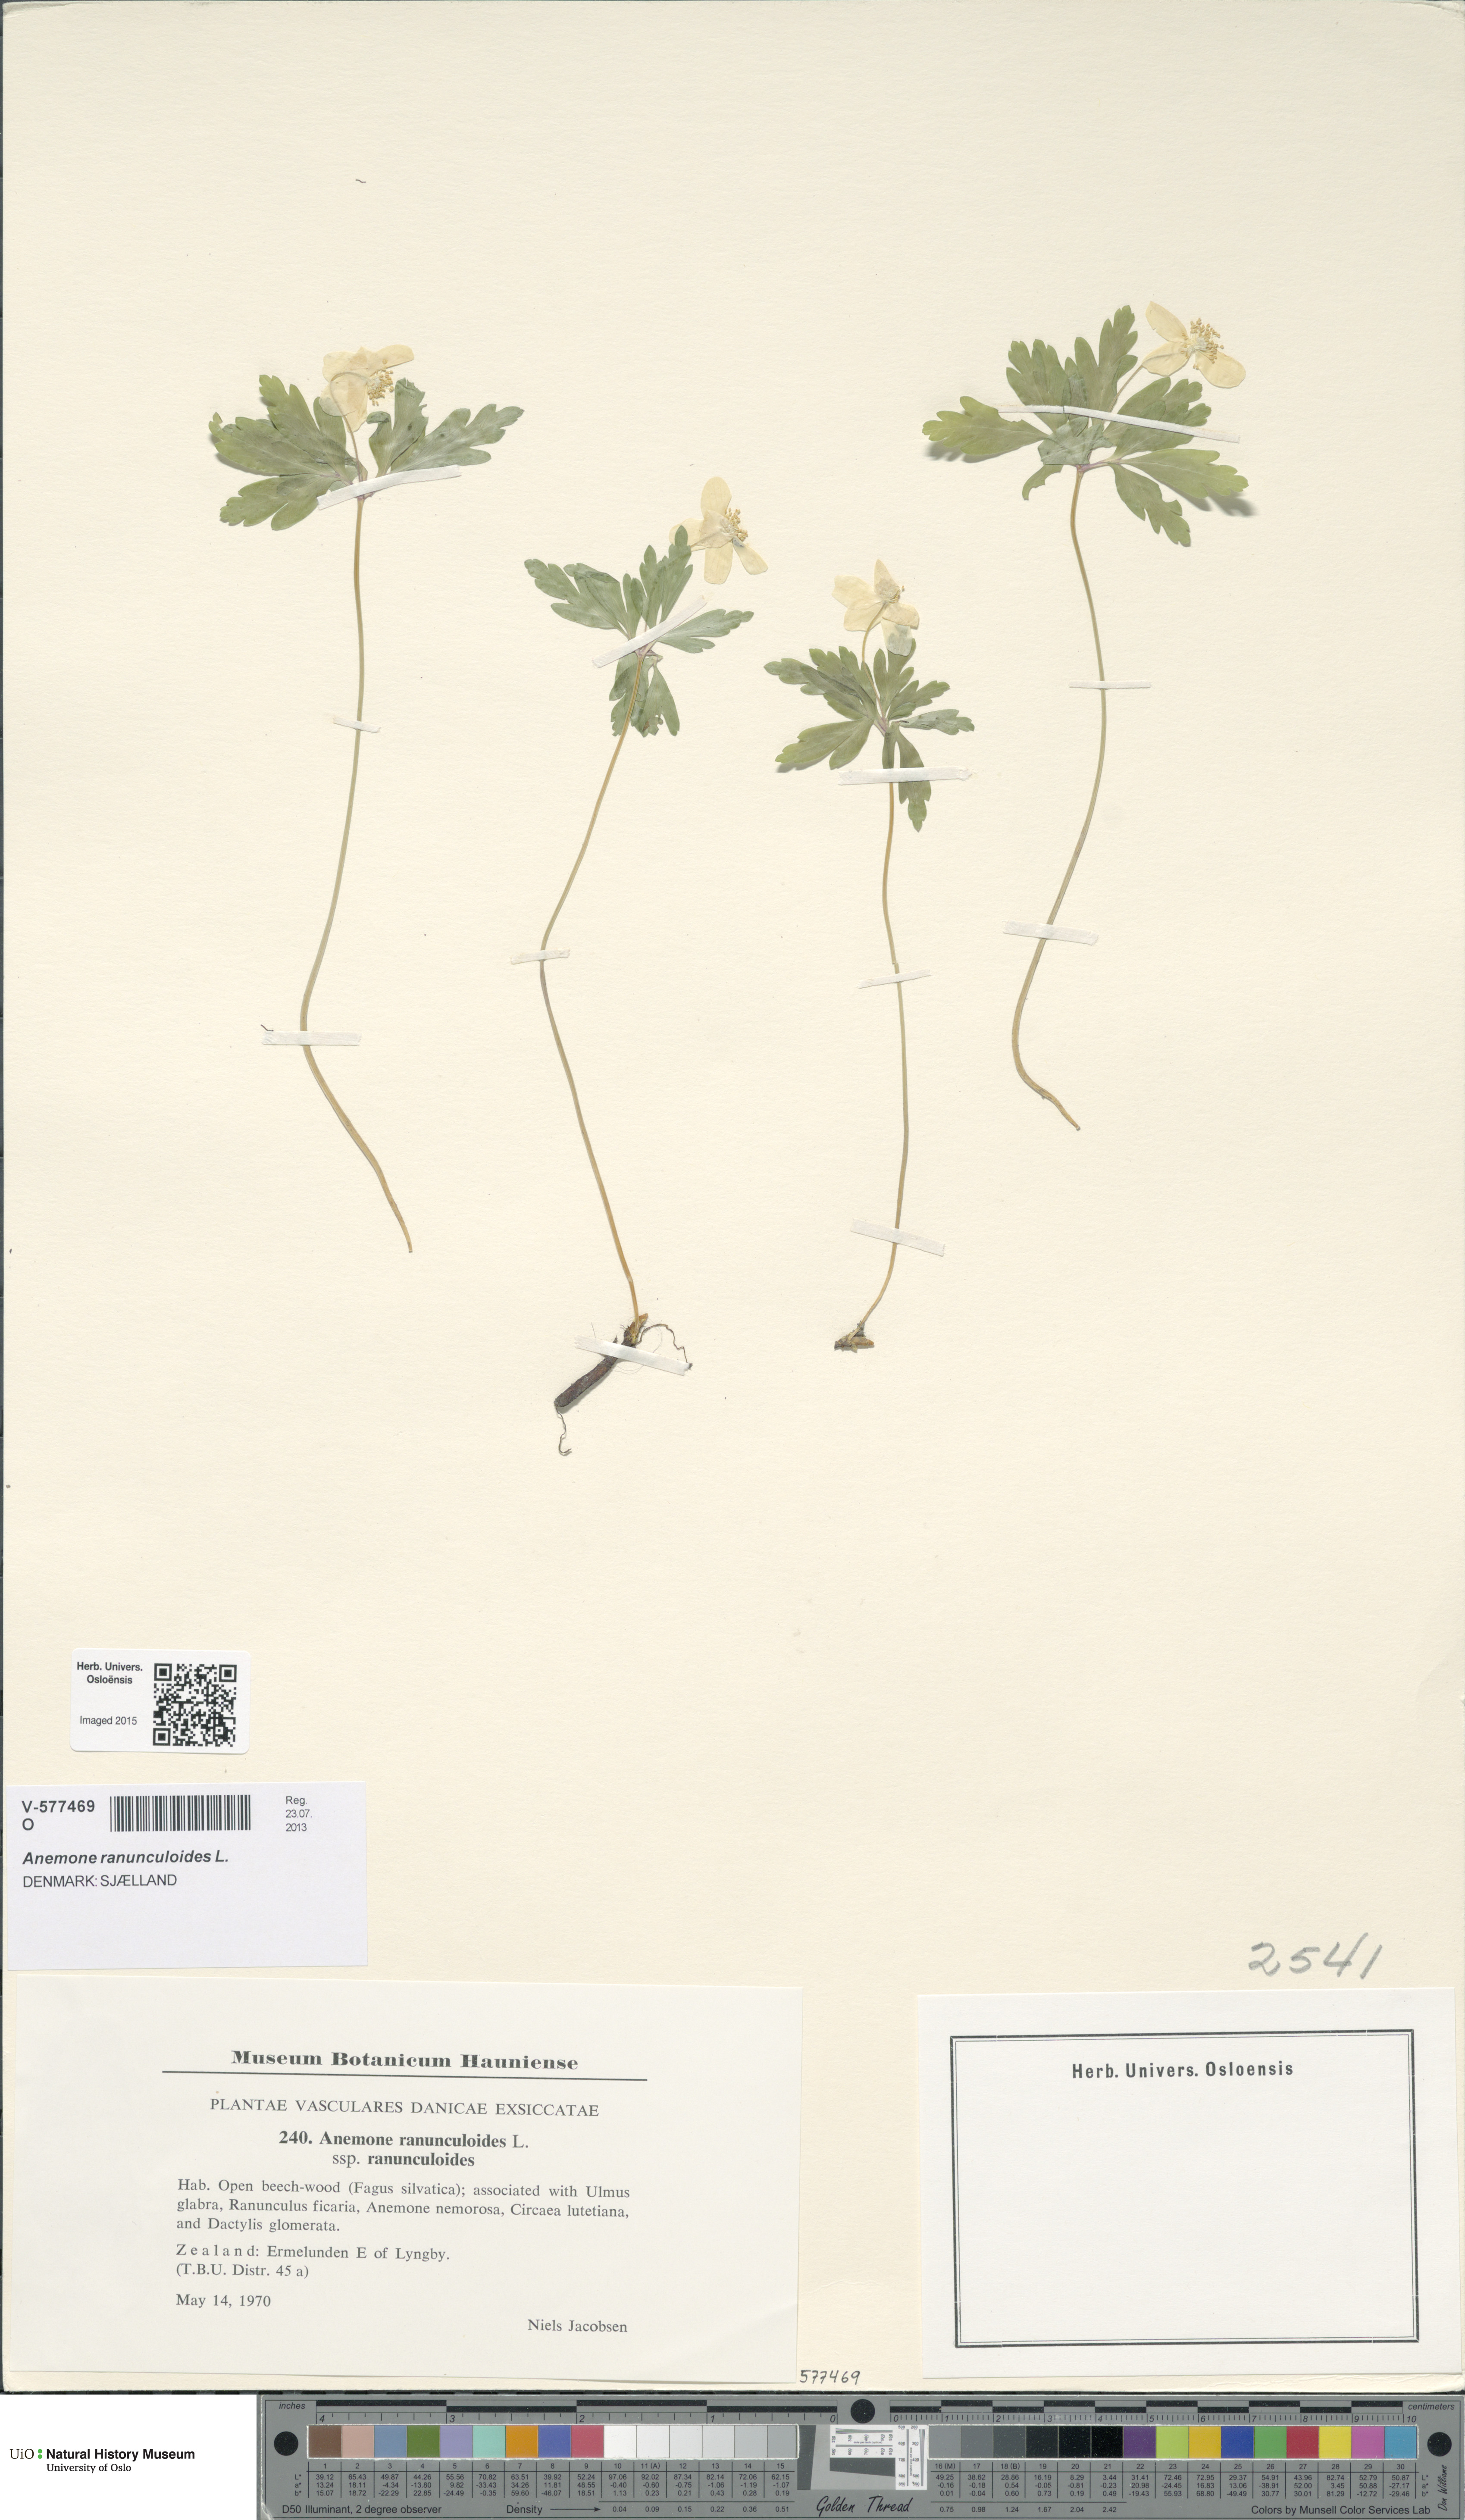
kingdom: Plantae
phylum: Tracheophyta
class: Magnoliopsida
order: Ranunculales
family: Ranunculaceae
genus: Anemone
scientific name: Anemone ranunculoides
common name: Yellow anemone
